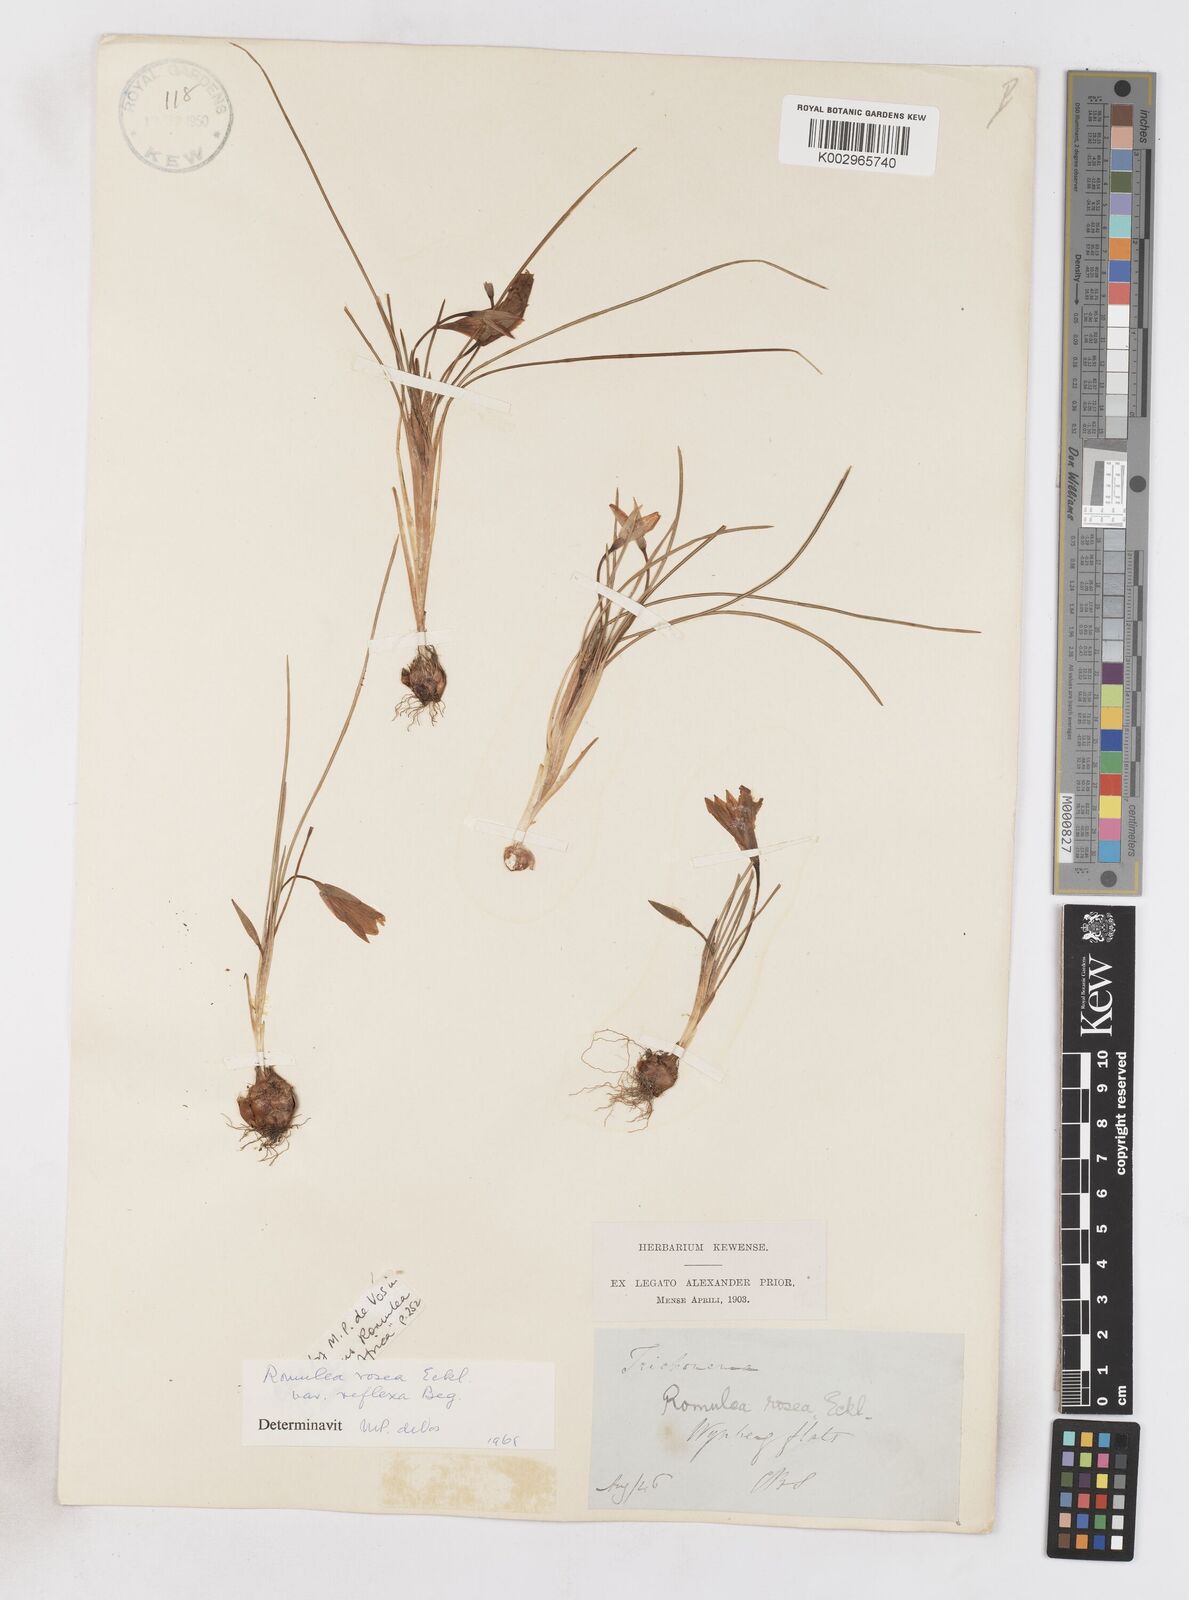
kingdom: Plantae
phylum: Tracheophyta
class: Liliopsida
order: Asparagales
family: Iridaceae
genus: Romulea
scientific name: Romulea rosea
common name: Oniongrass
